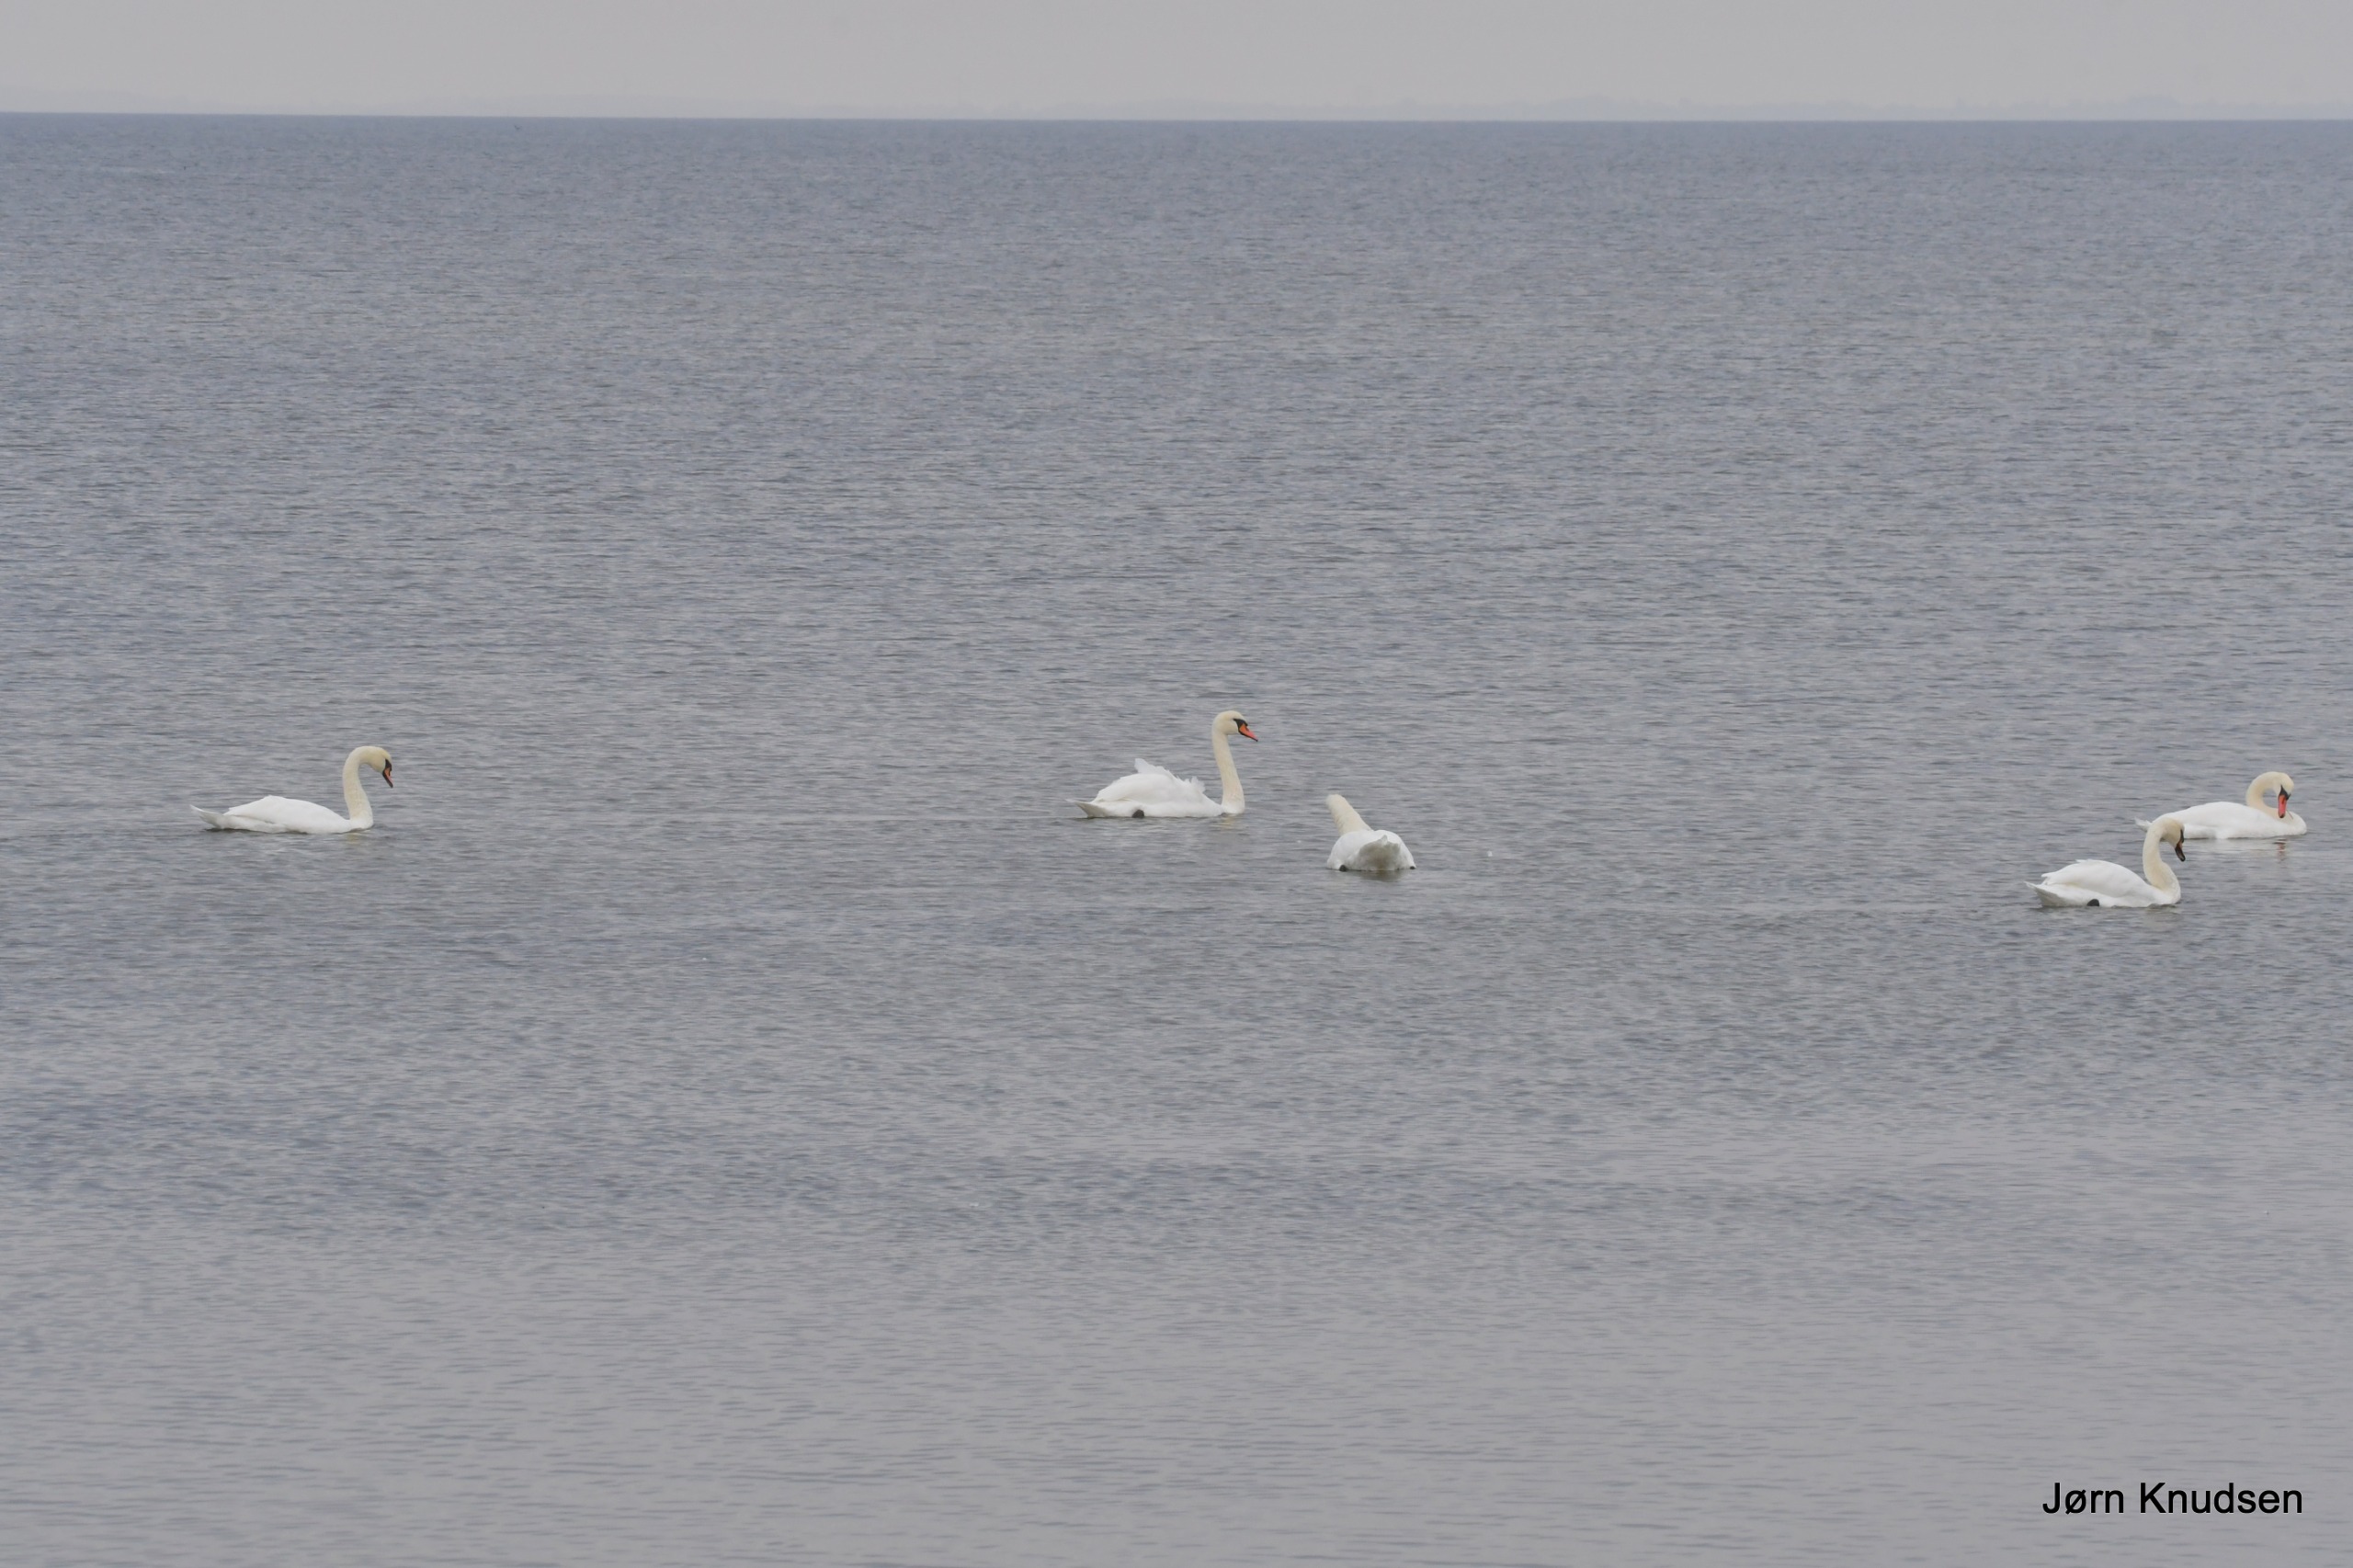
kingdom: Animalia
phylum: Chordata
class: Aves
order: Anseriformes
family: Anatidae
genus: Cygnus
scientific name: Cygnus olor
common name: Knopsvane
